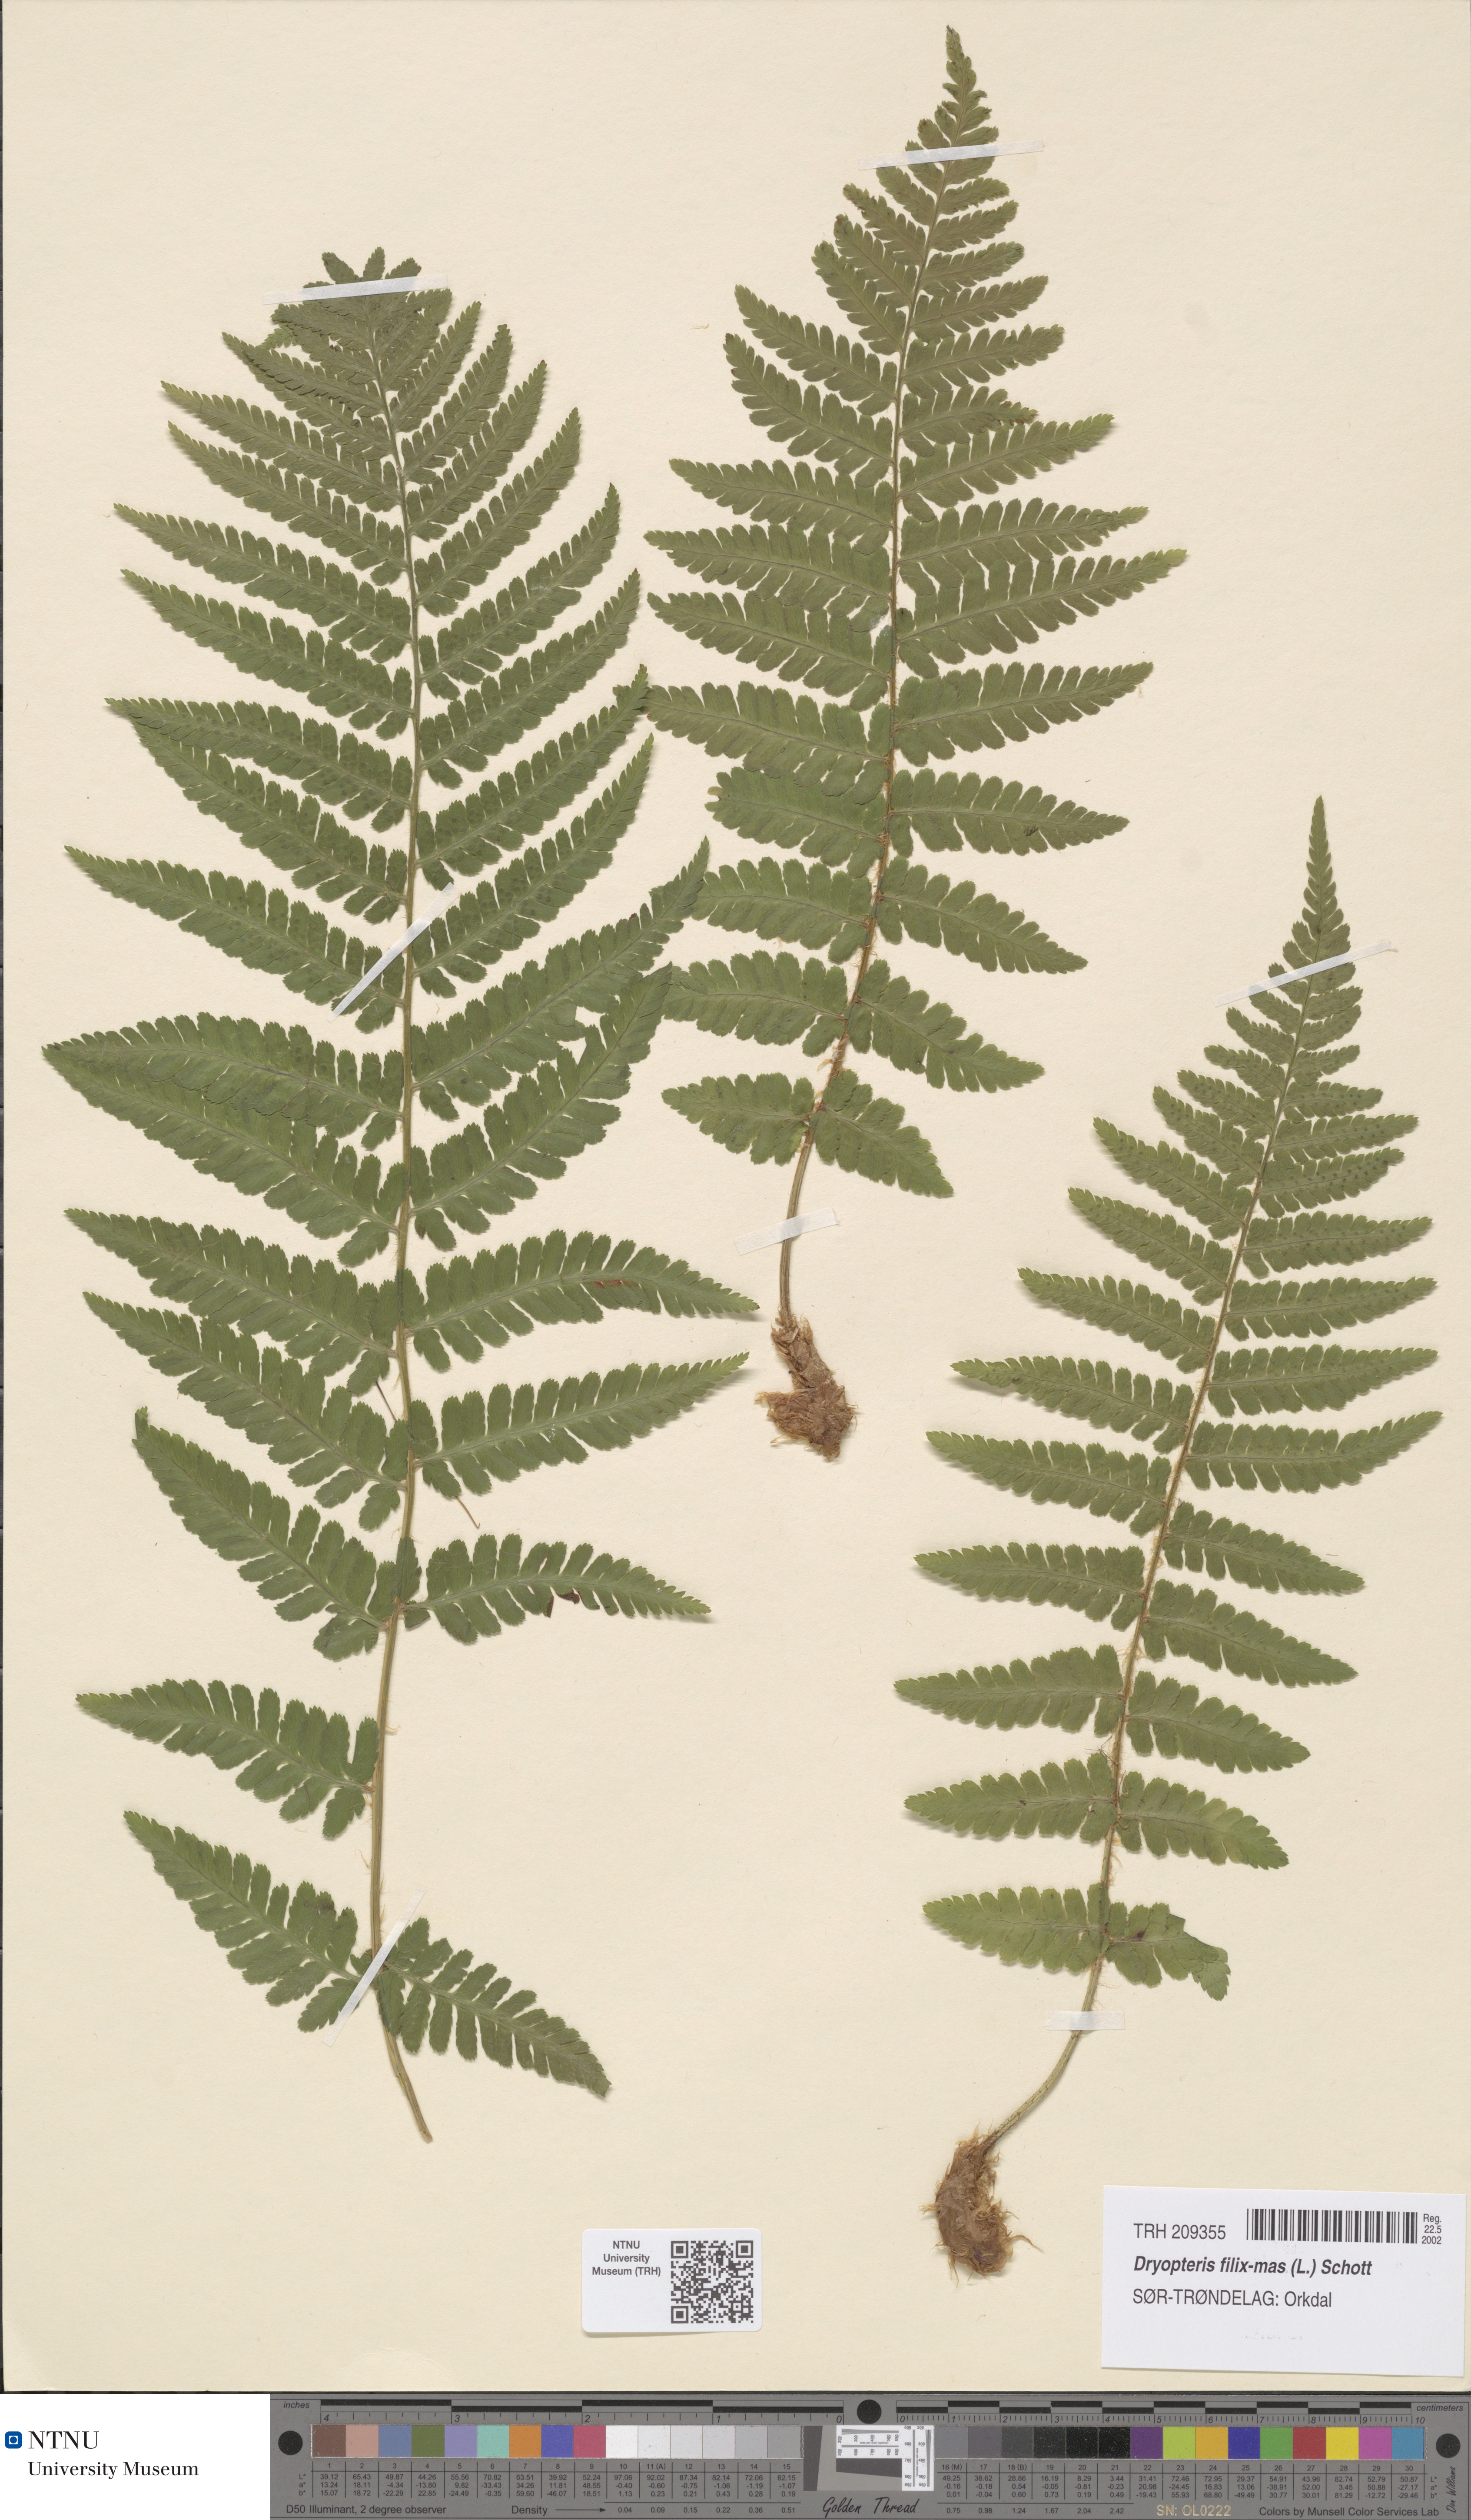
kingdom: Plantae
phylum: Tracheophyta
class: Polypodiopsida
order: Polypodiales
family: Dryopteridaceae
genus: Dryopteris
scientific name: Dryopteris filix-mas
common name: Male fern
